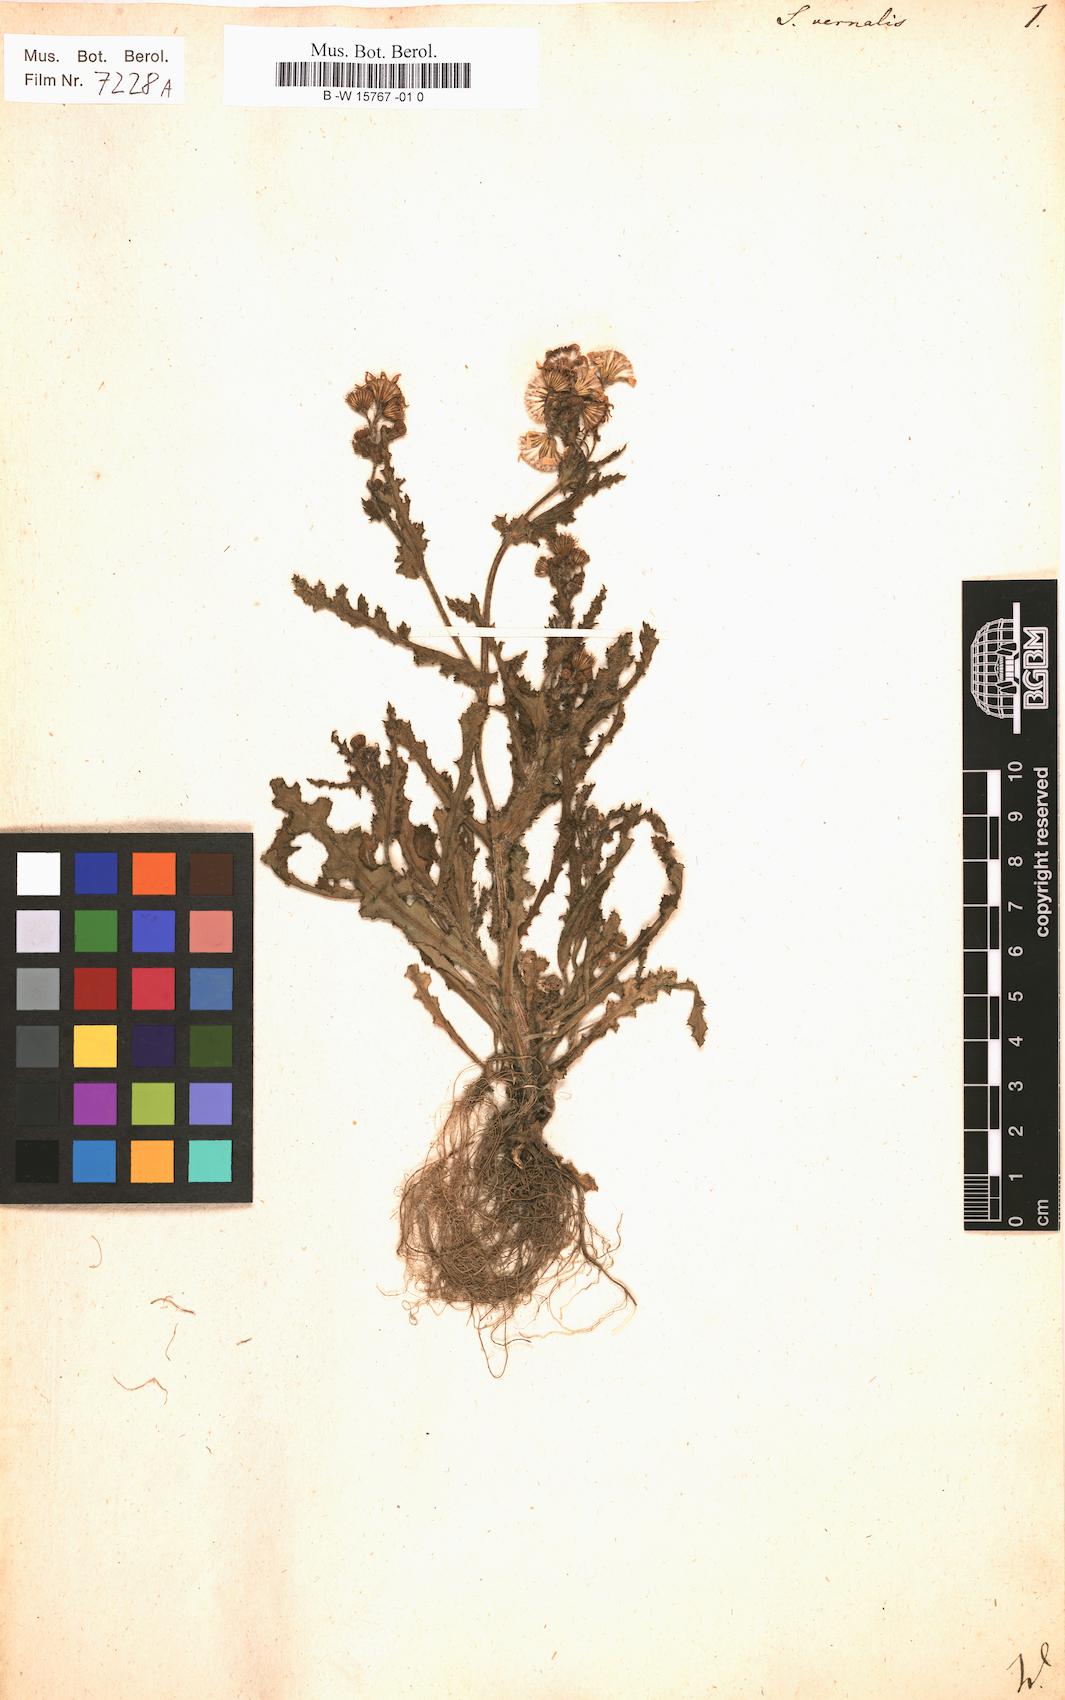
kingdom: Plantae
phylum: Tracheophyta
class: Magnoliopsida
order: Asterales
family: Asteraceae
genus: Senecio
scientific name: Senecio vernalis
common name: Eastern groundsel
